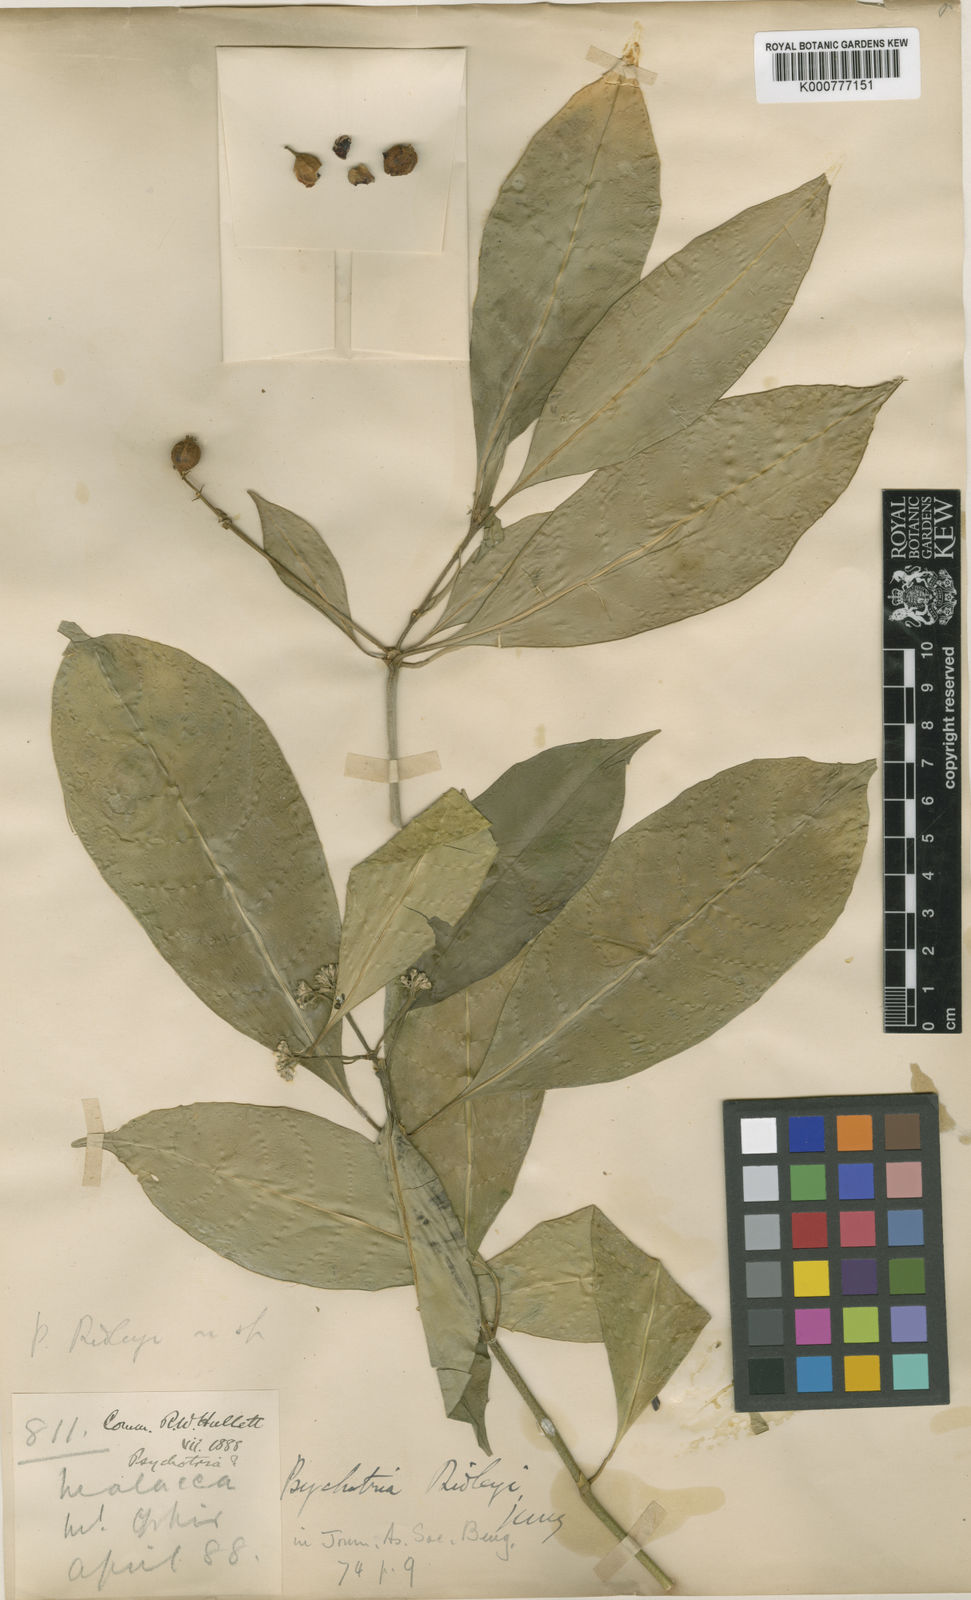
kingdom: Plantae
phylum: Tracheophyta
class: Magnoliopsida
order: Gentianales
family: Rubiaceae
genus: Psychotria
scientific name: Psychotria ridleyi
